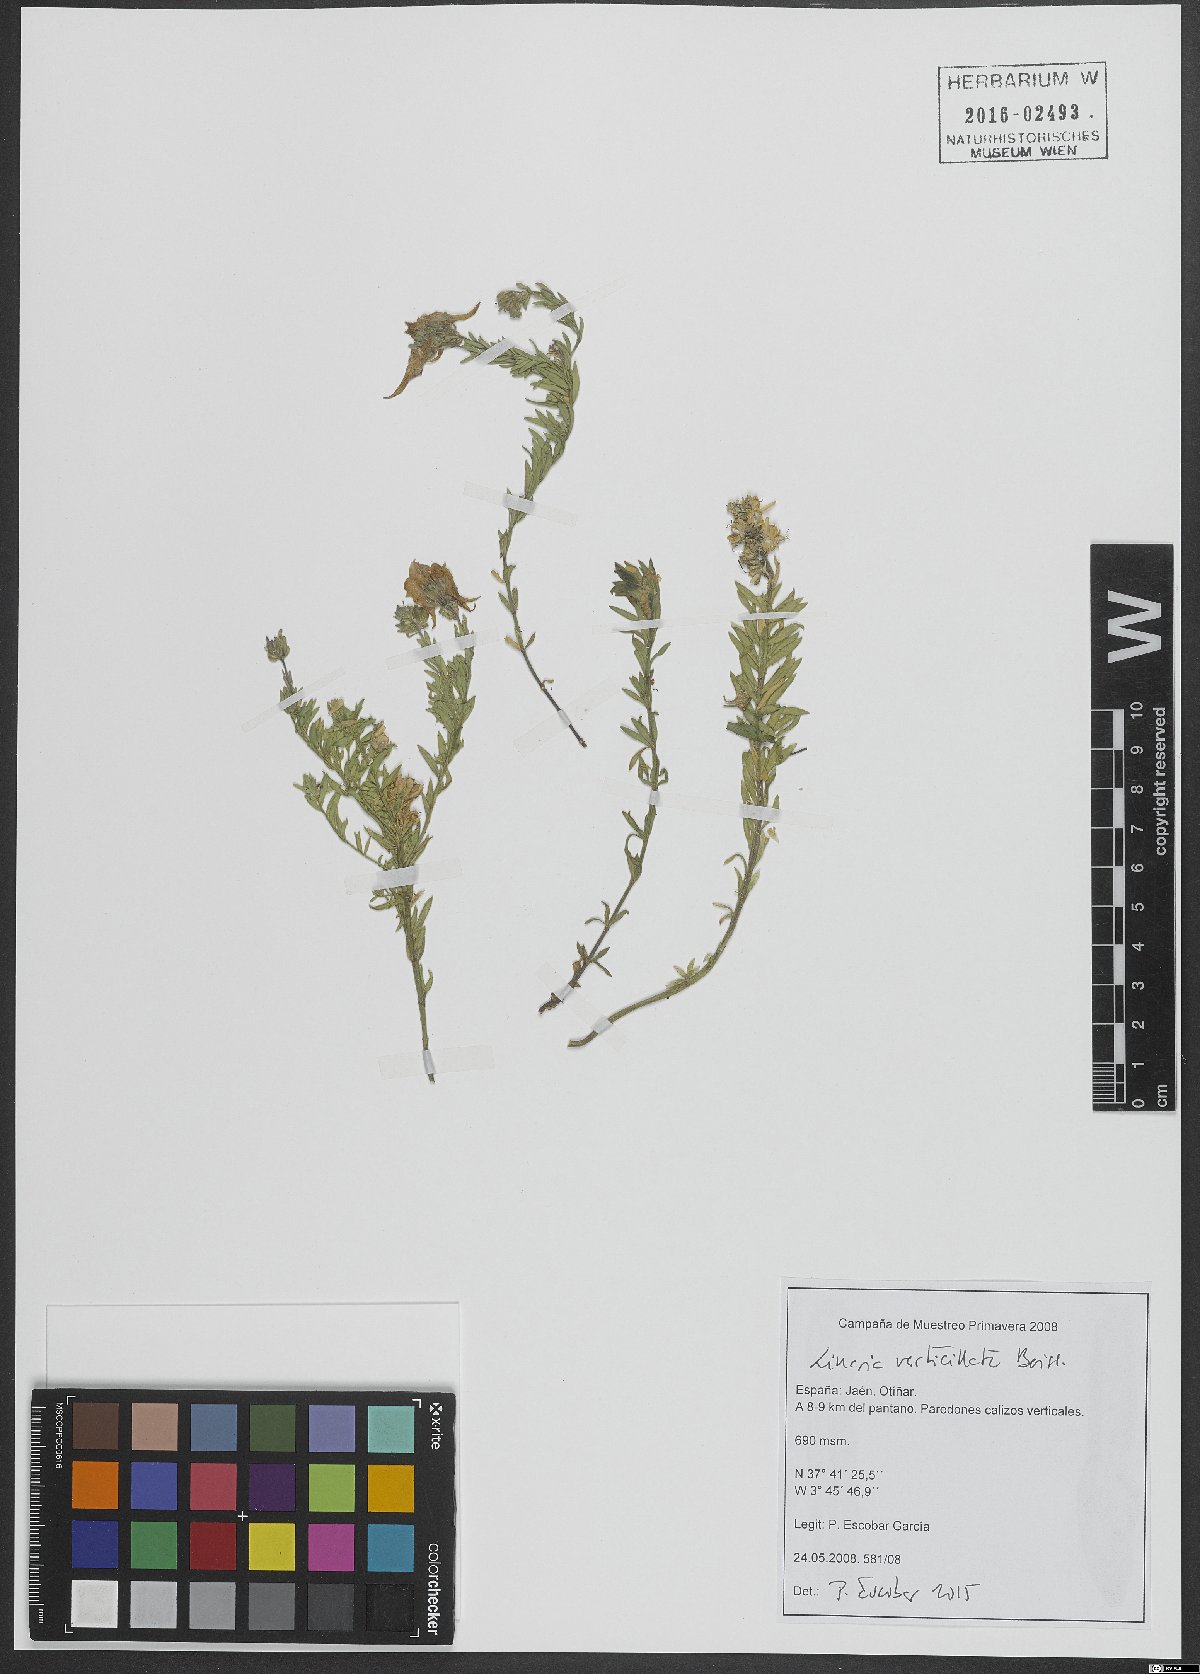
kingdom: Plantae
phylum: Tracheophyta
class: Magnoliopsida
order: Lamiales
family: Plantaginaceae
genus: Linaria
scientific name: Linaria verticillata
